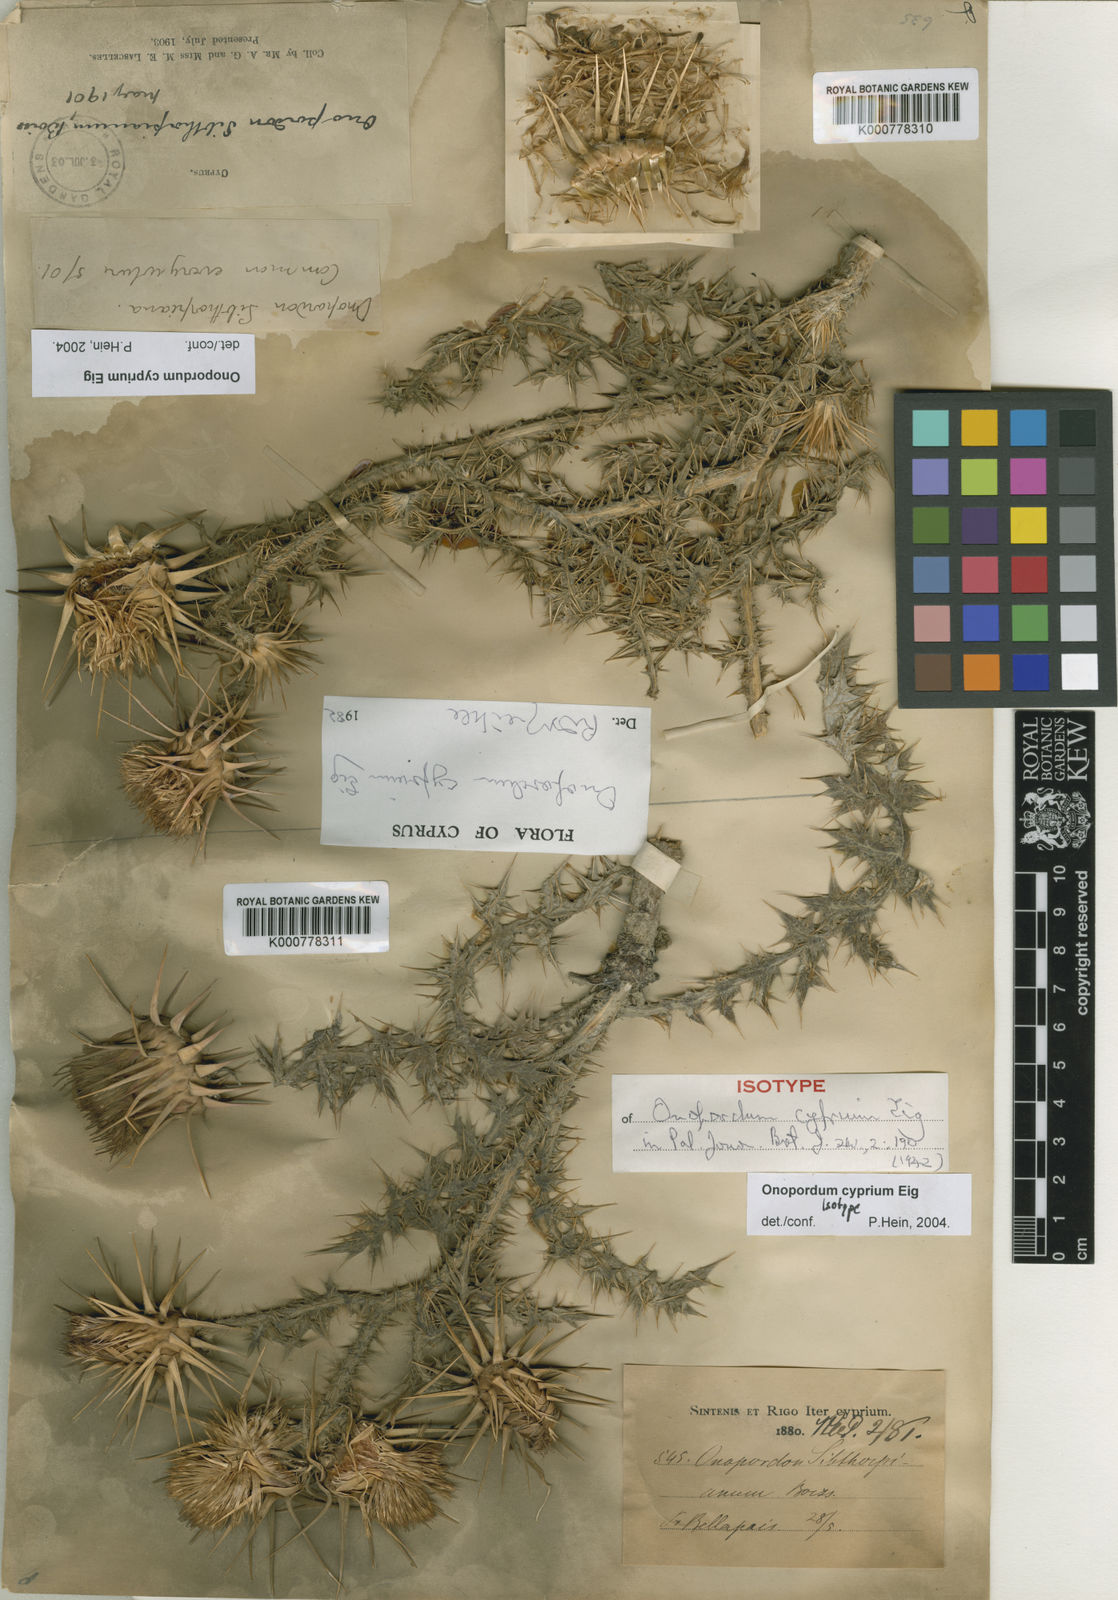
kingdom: Plantae
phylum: Tracheophyta
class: Magnoliopsida
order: Asterales
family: Asteraceae
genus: Onopordum
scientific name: Onopordum cyprium
